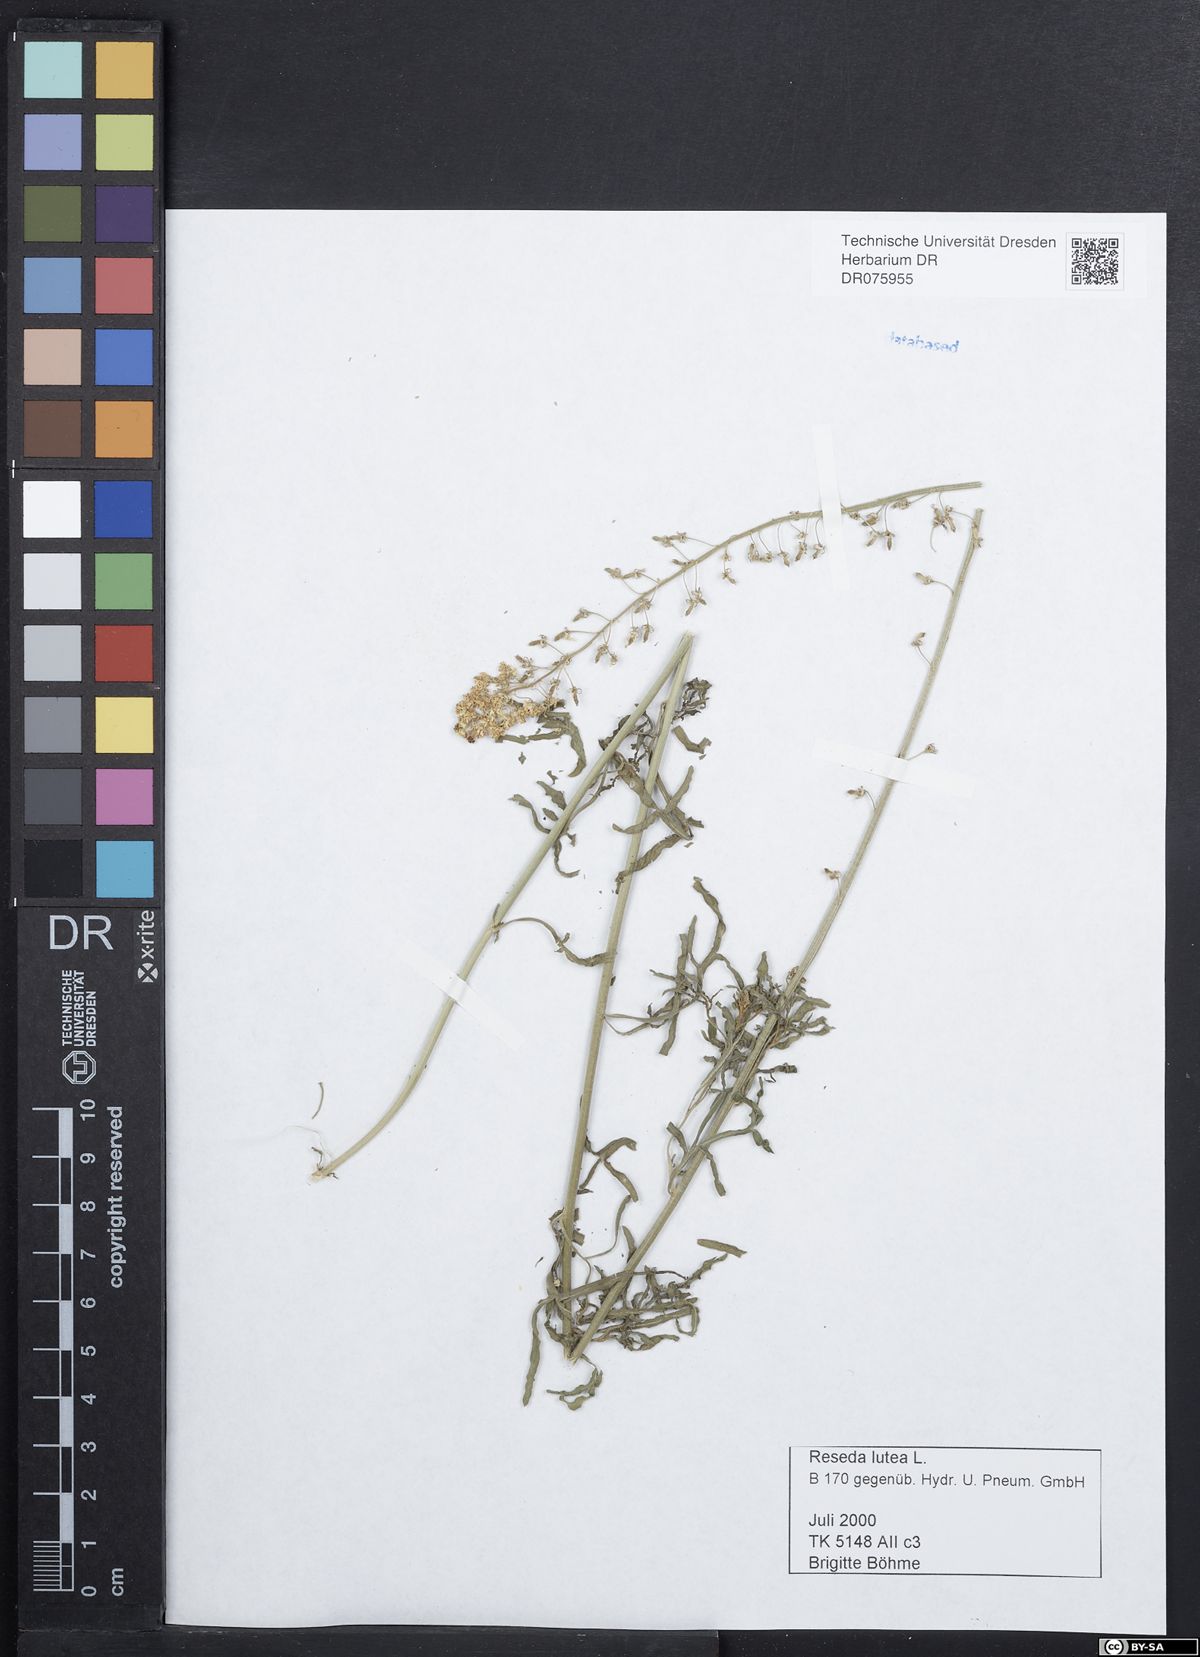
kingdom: Plantae
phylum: Tracheophyta
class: Magnoliopsida
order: Brassicales
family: Resedaceae
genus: Reseda
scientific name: Reseda lutea
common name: Wild mignonette
